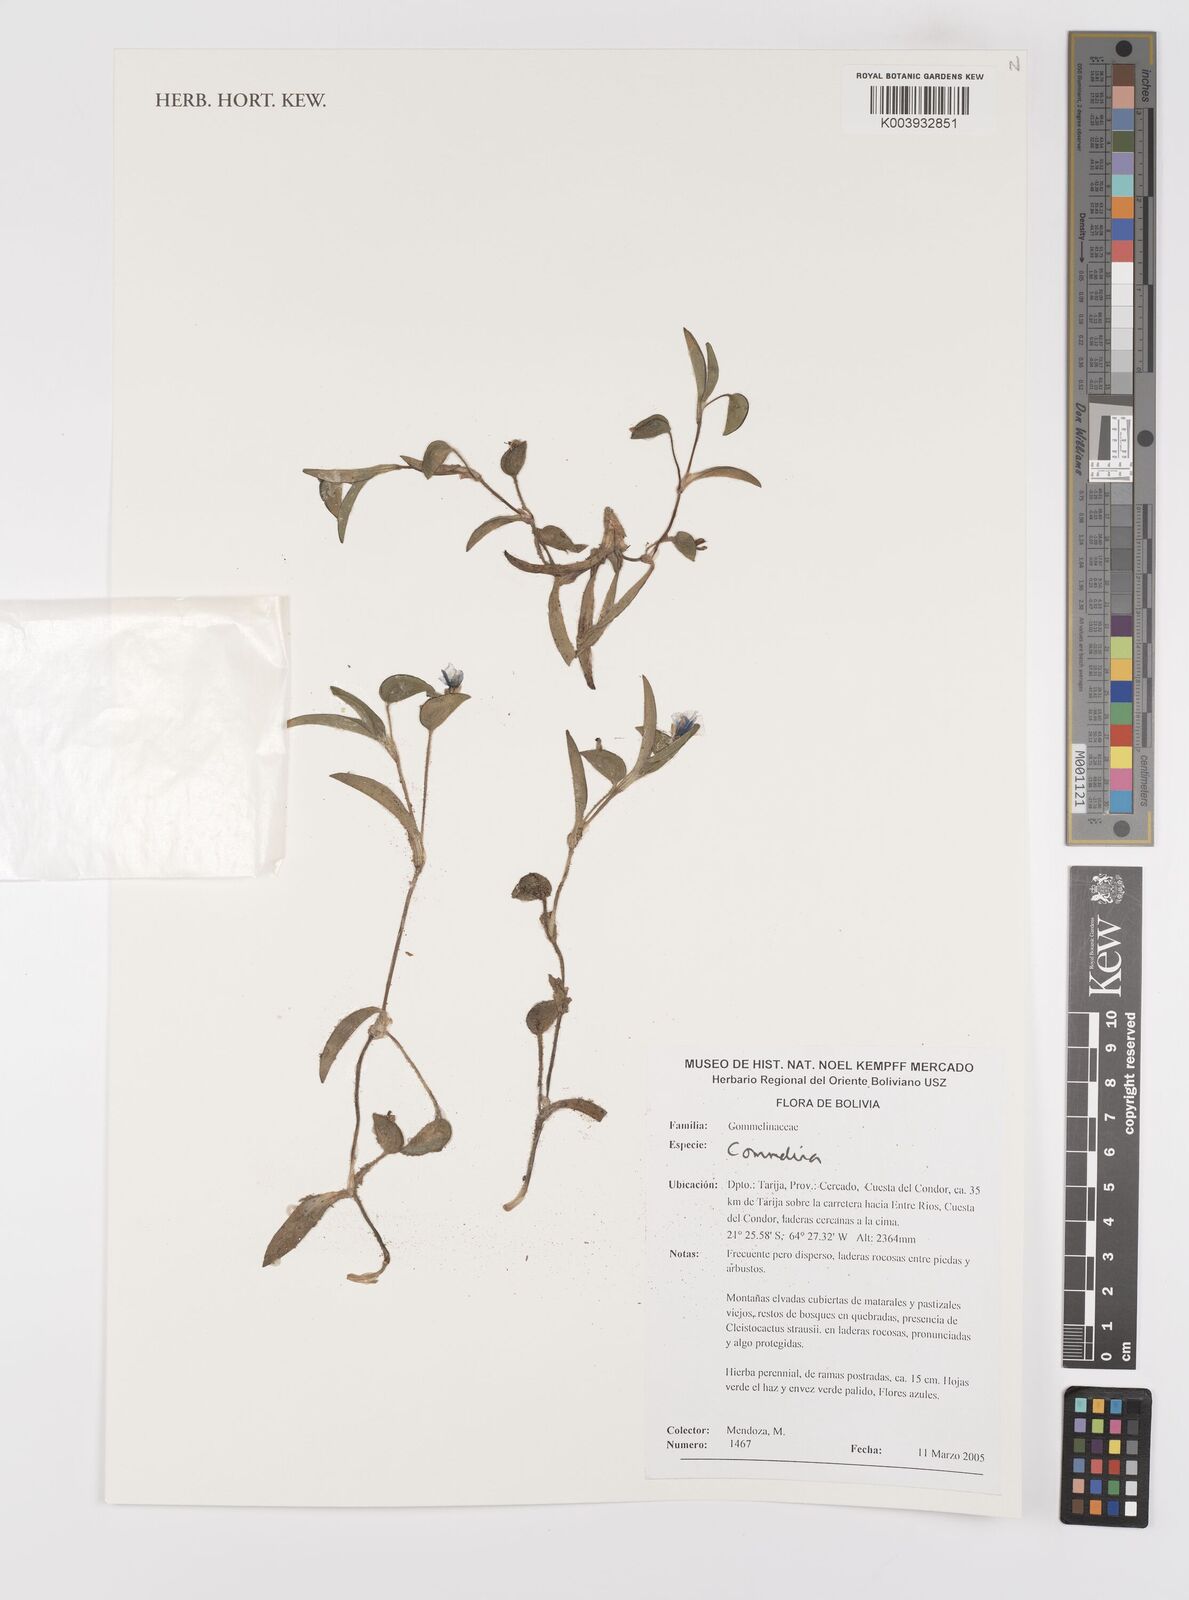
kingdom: Plantae
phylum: Tracheophyta
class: Liliopsida
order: Commelinales
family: Commelinaceae
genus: Commelina
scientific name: Commelina
